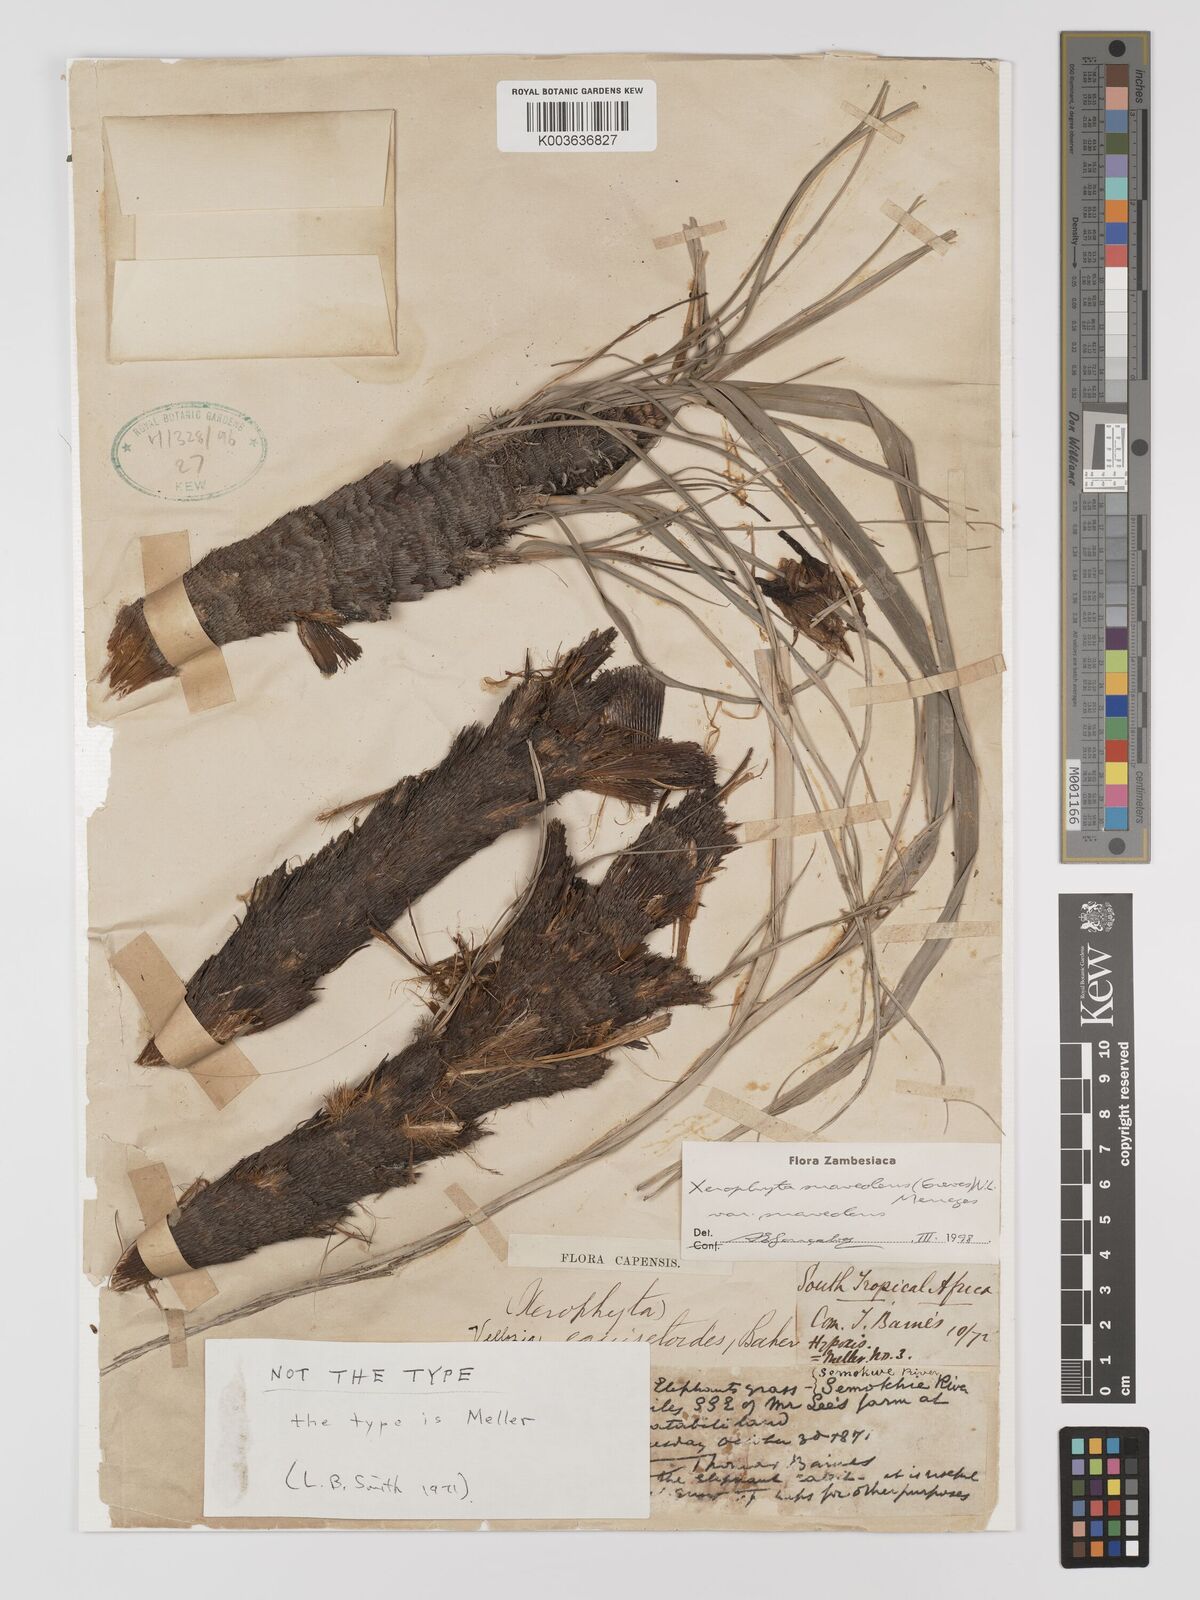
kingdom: Plantae
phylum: Tracheophyta
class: Liliopsida
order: Pandanales
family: Velloziaceae
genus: Xerophyta
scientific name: Xerophyta suaveolens
